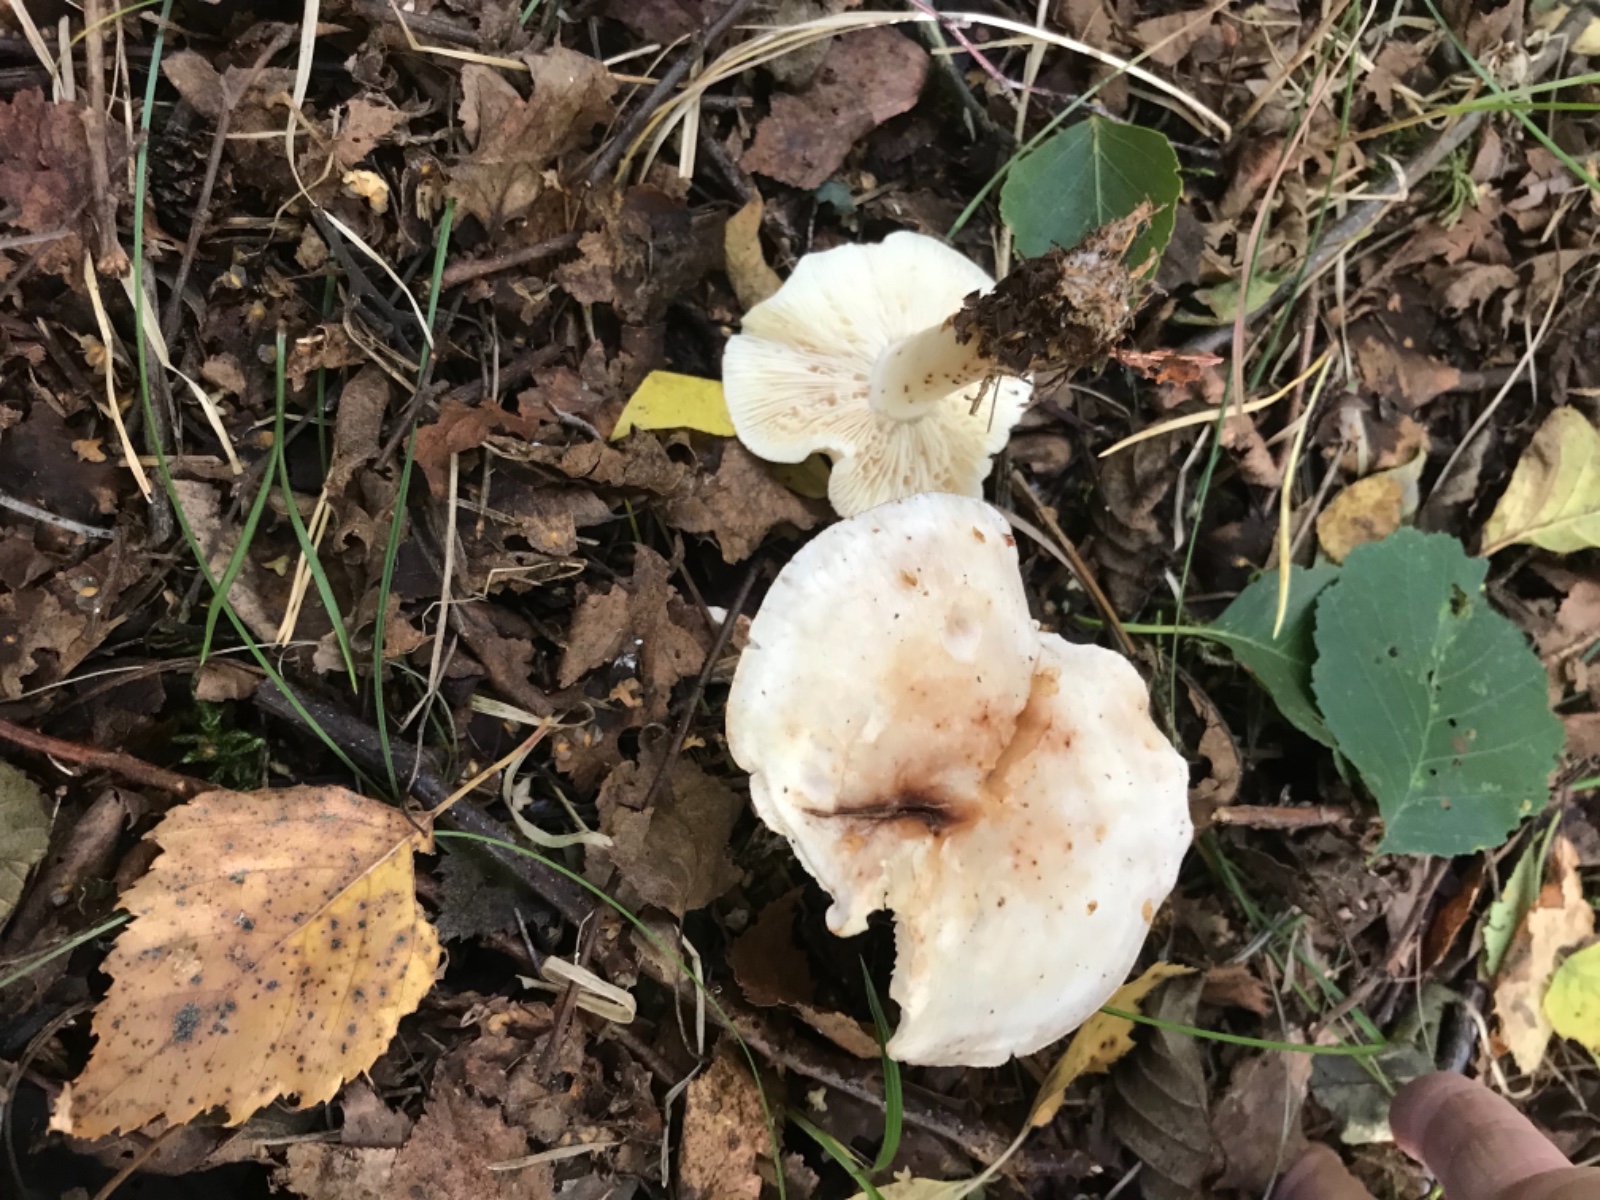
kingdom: Fungi
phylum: Basidiomycota
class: Agaricomycetes
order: Agaricales
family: Omphalotaceae
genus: Rhodocollybia
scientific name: Rhodocollybia maculata
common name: plettet fladhat
